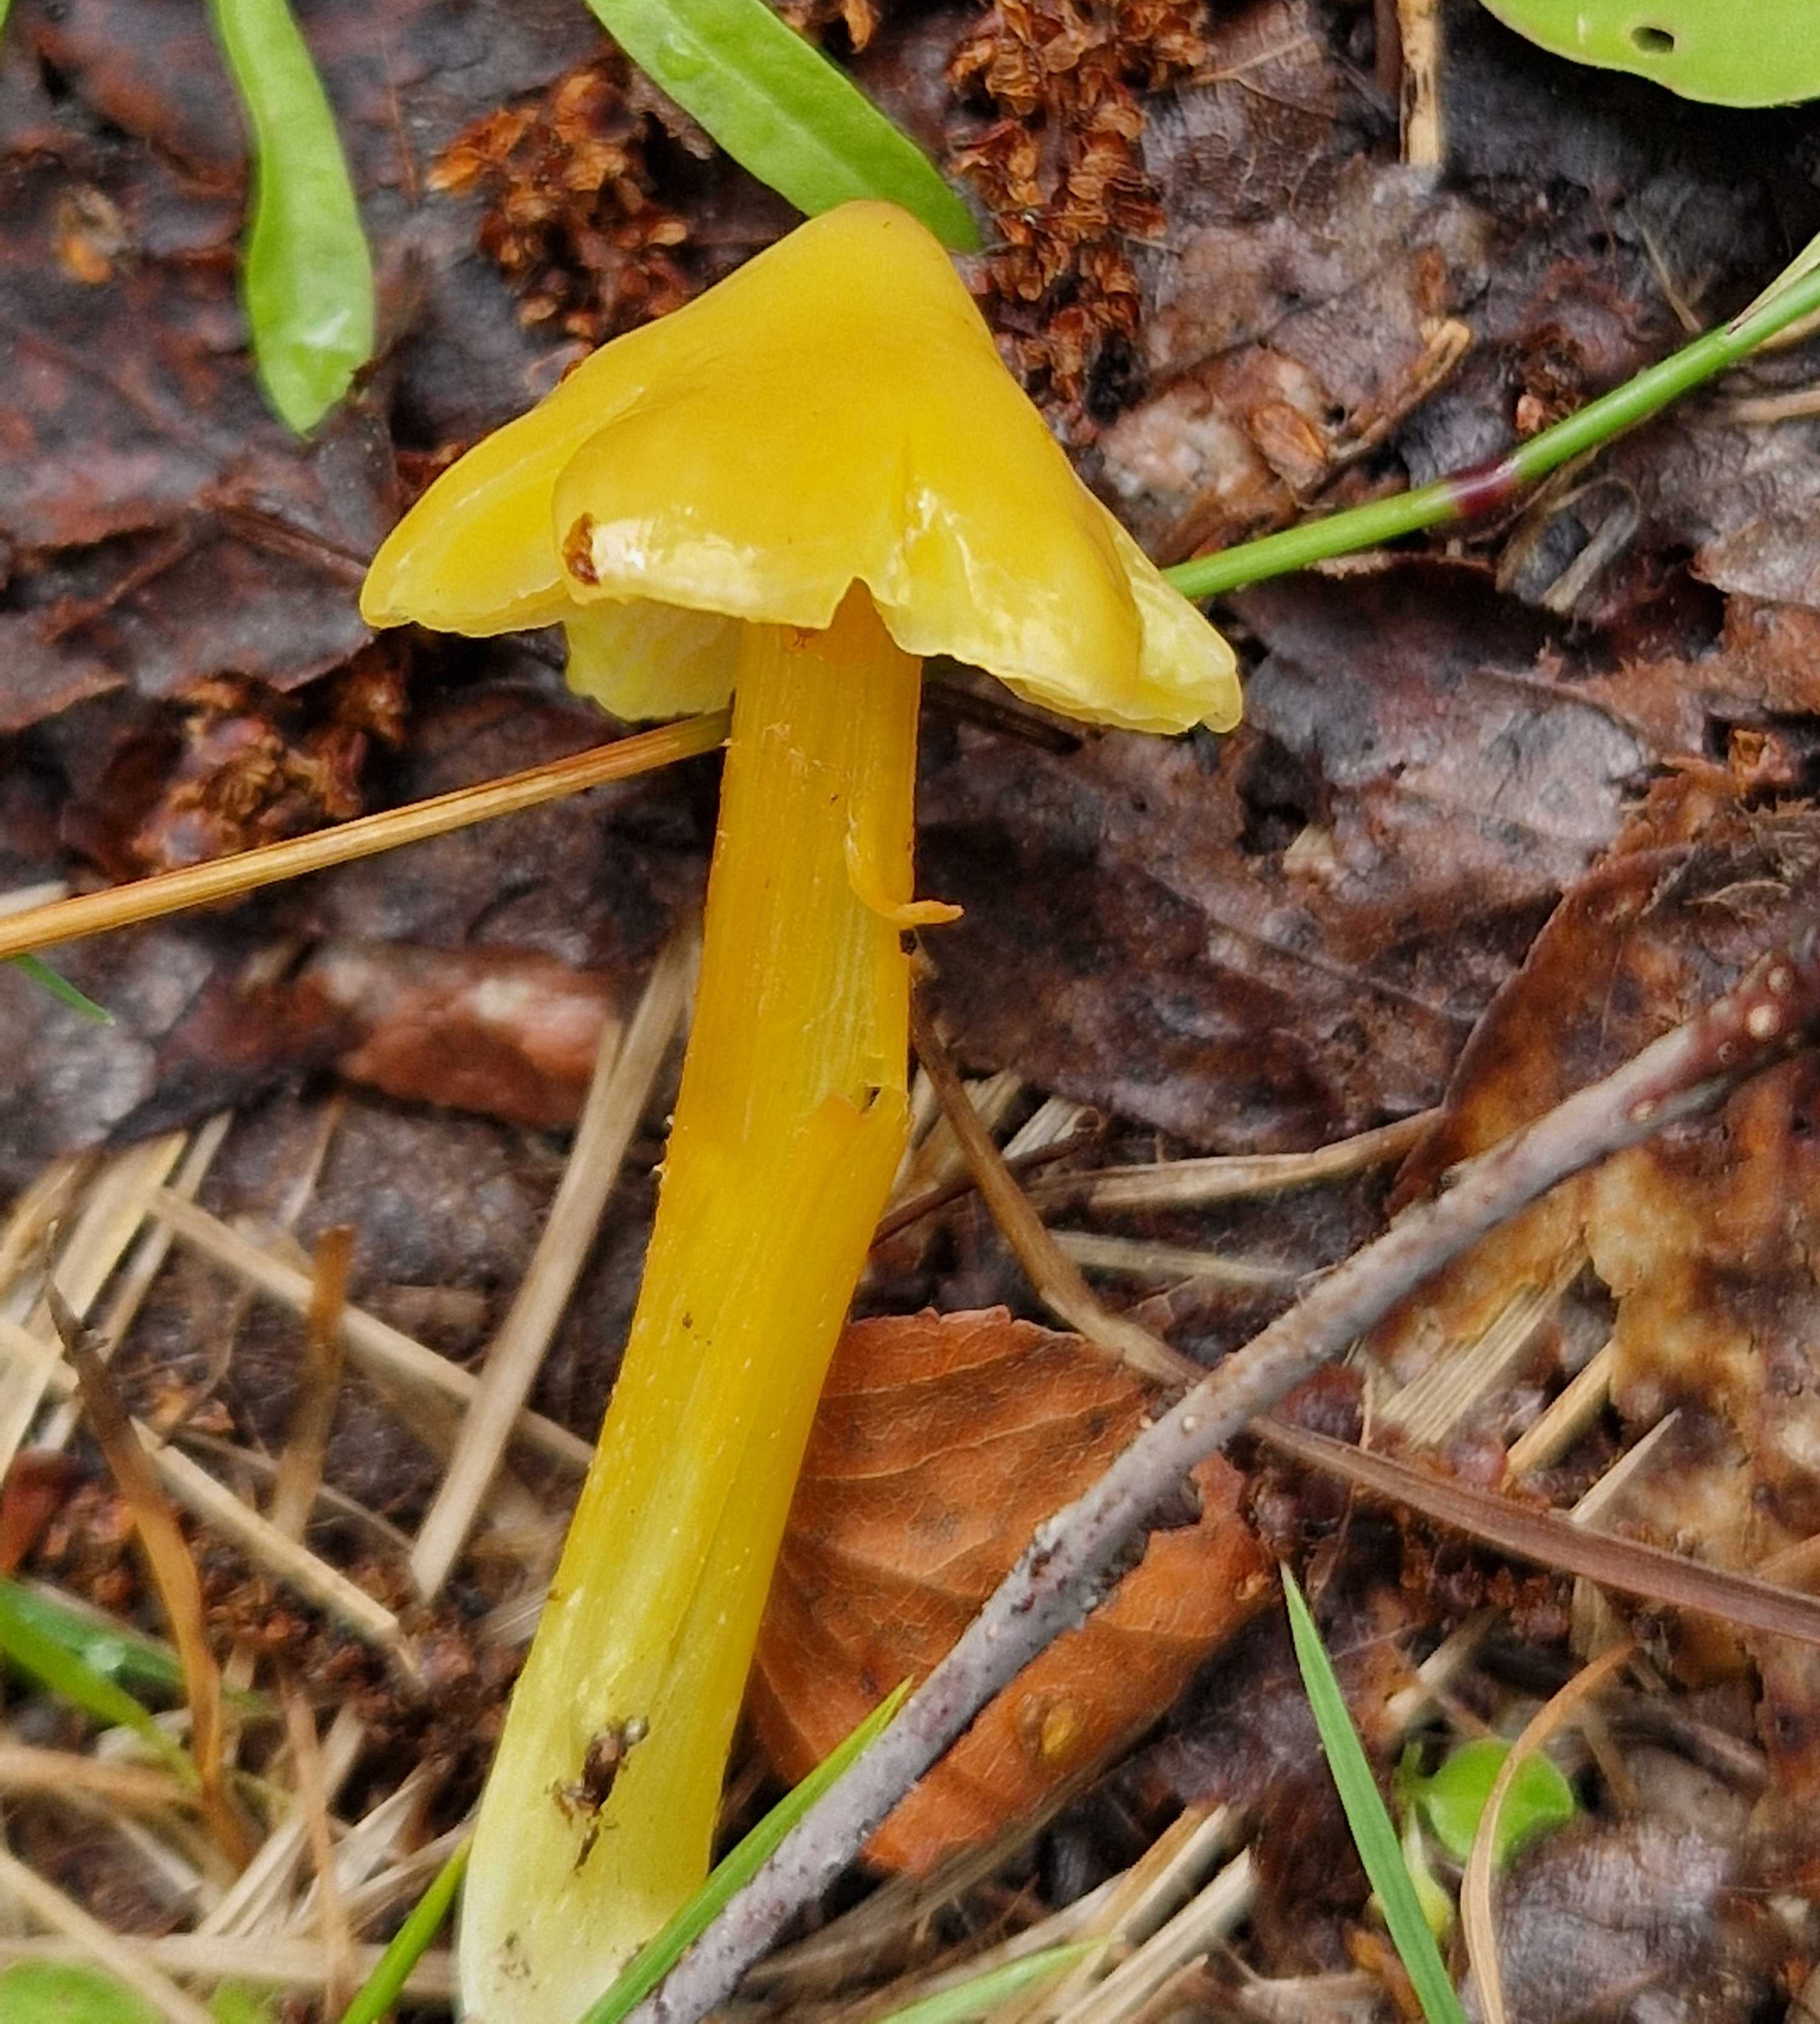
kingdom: Fungi
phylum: Basidiomycota
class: Agaricomycetes
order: Agaricales
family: Hygrophoraceae
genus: Hygrocybe
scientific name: Hygrocybe
